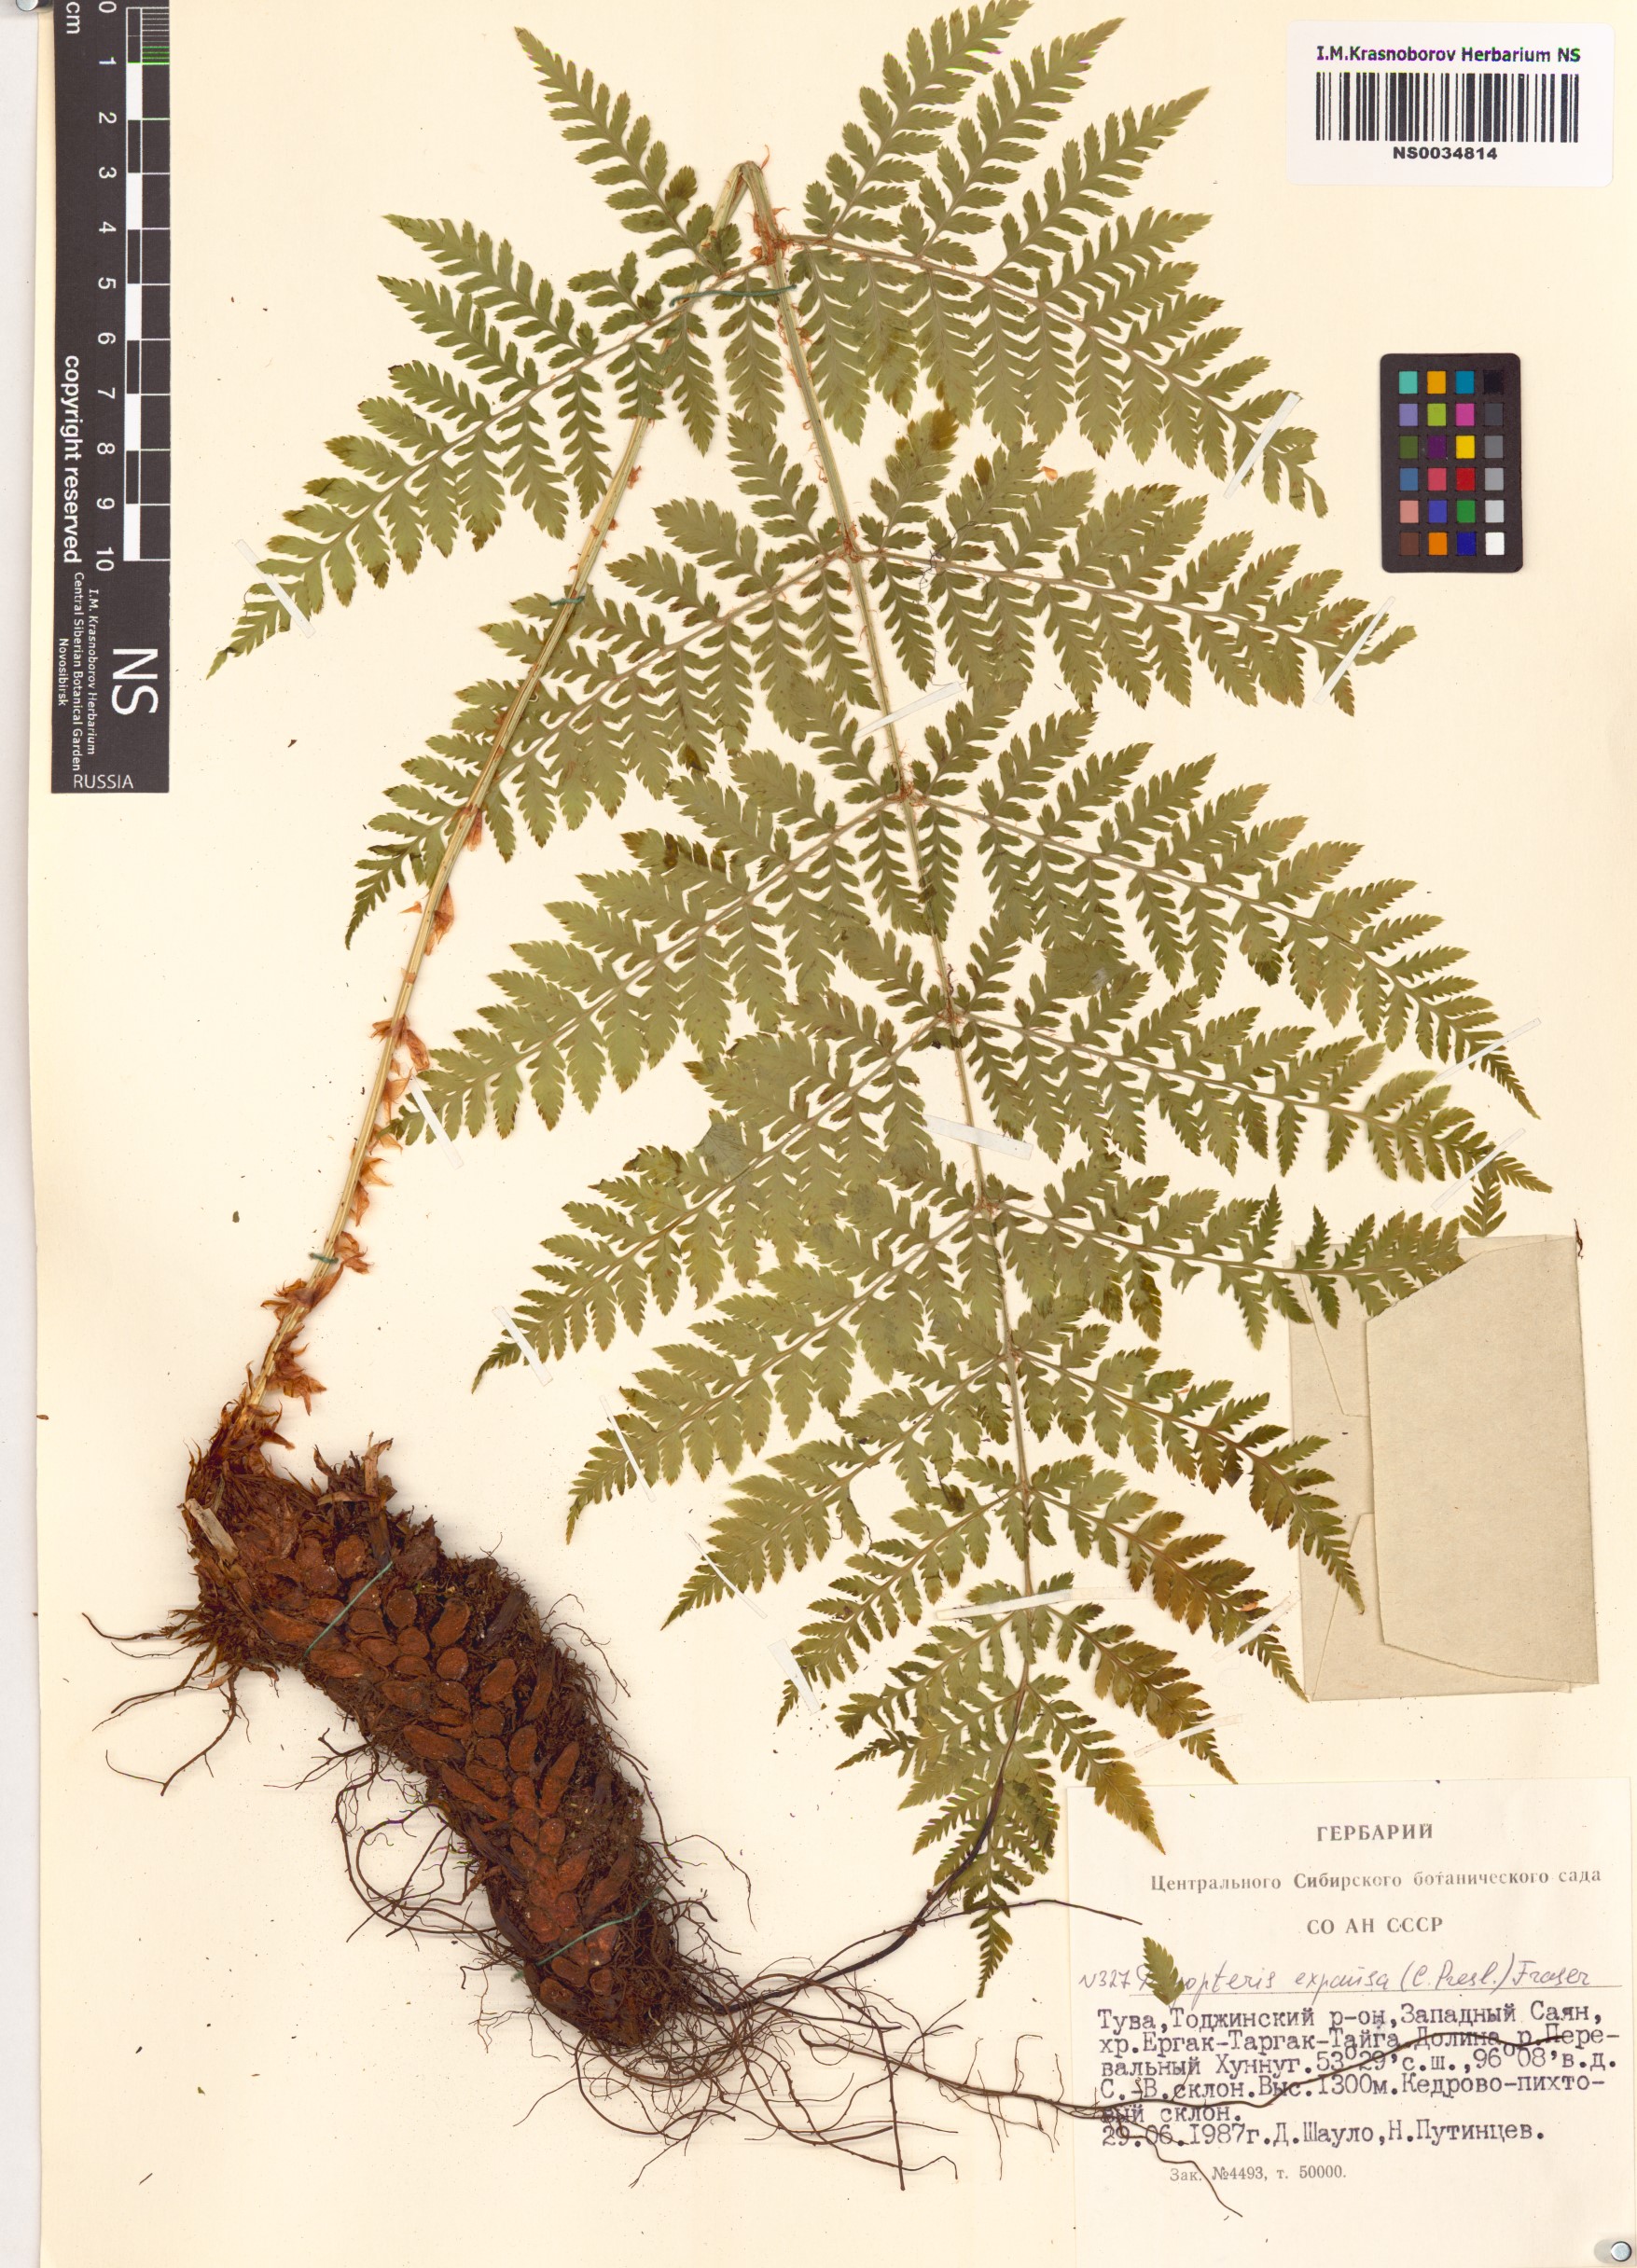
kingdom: Plantae
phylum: Tracheophyta
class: Polypodiopsida
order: Polypodiales
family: Dryopteridaceae
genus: Dryopteris
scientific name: Dryopteris expansa
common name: Northern buckler fern
